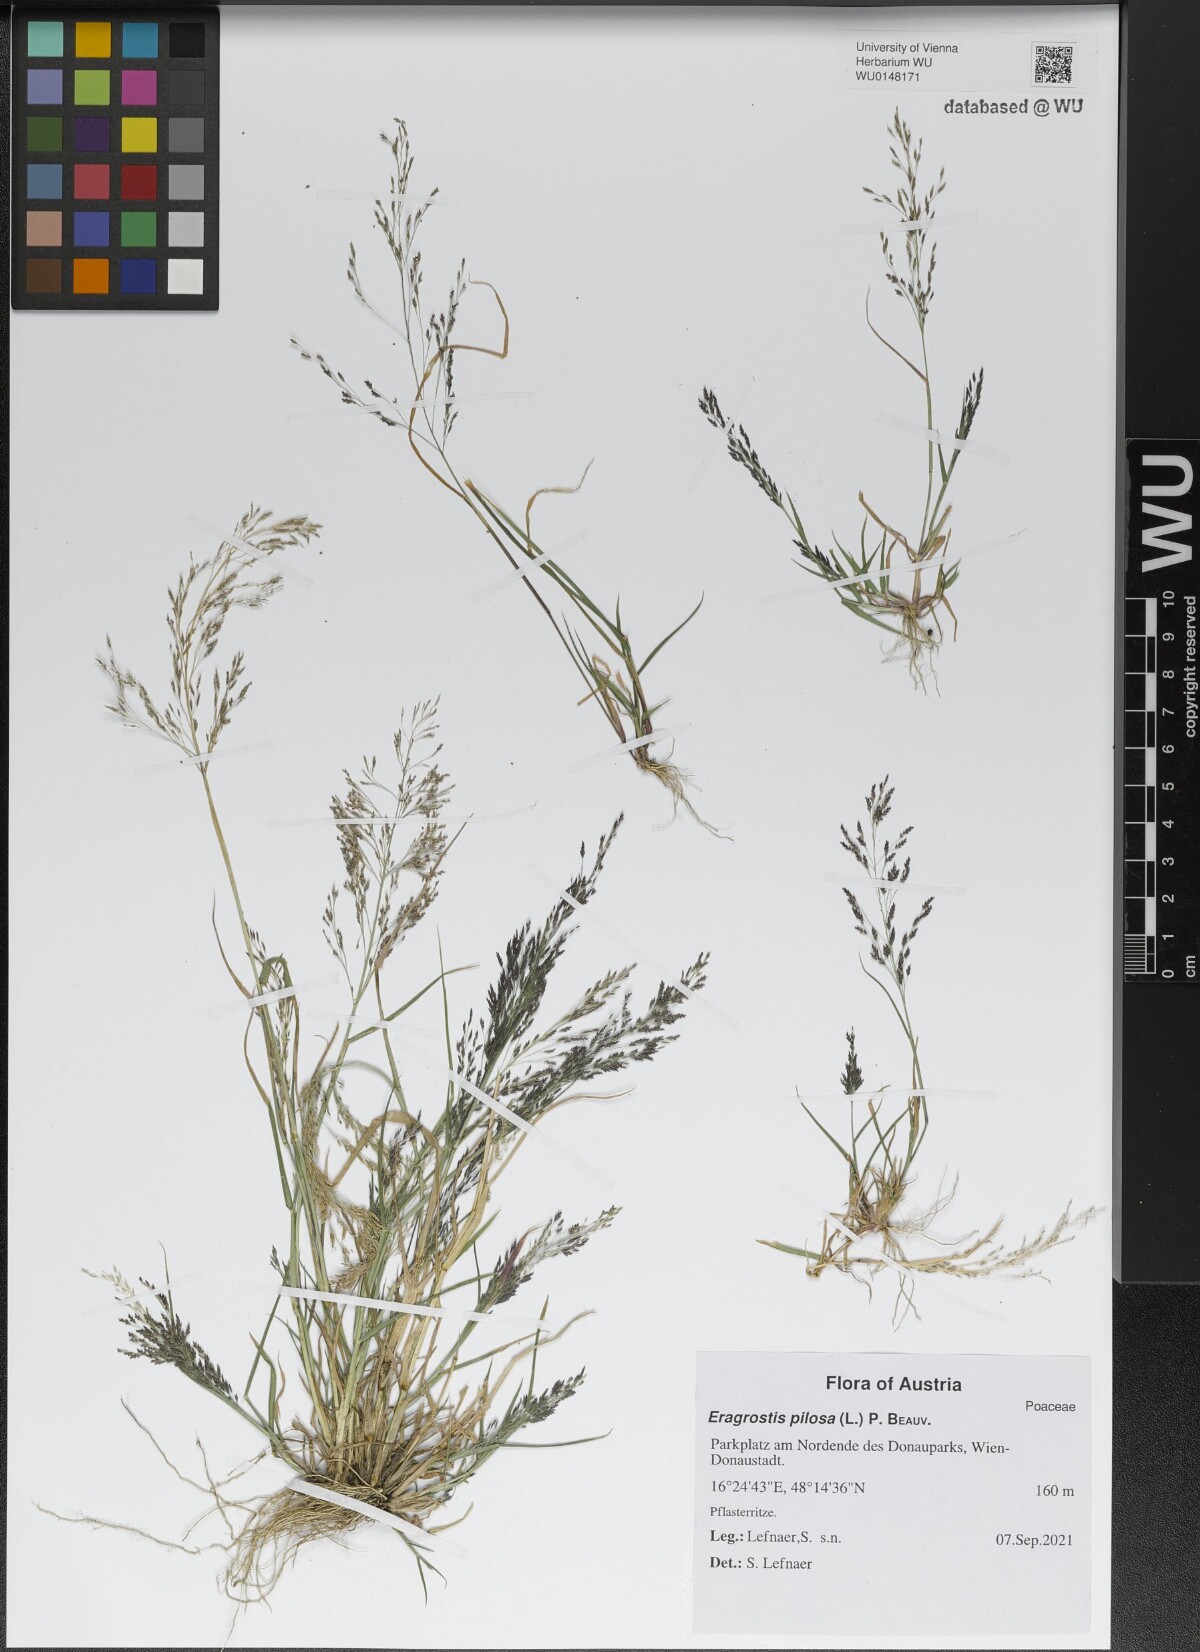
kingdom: Plantae
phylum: Tracheophyta
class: Liliopsida
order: Poales
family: Poaceae
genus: Eragrostis
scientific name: Eragrostis pilosa
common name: Indian lovegrass
